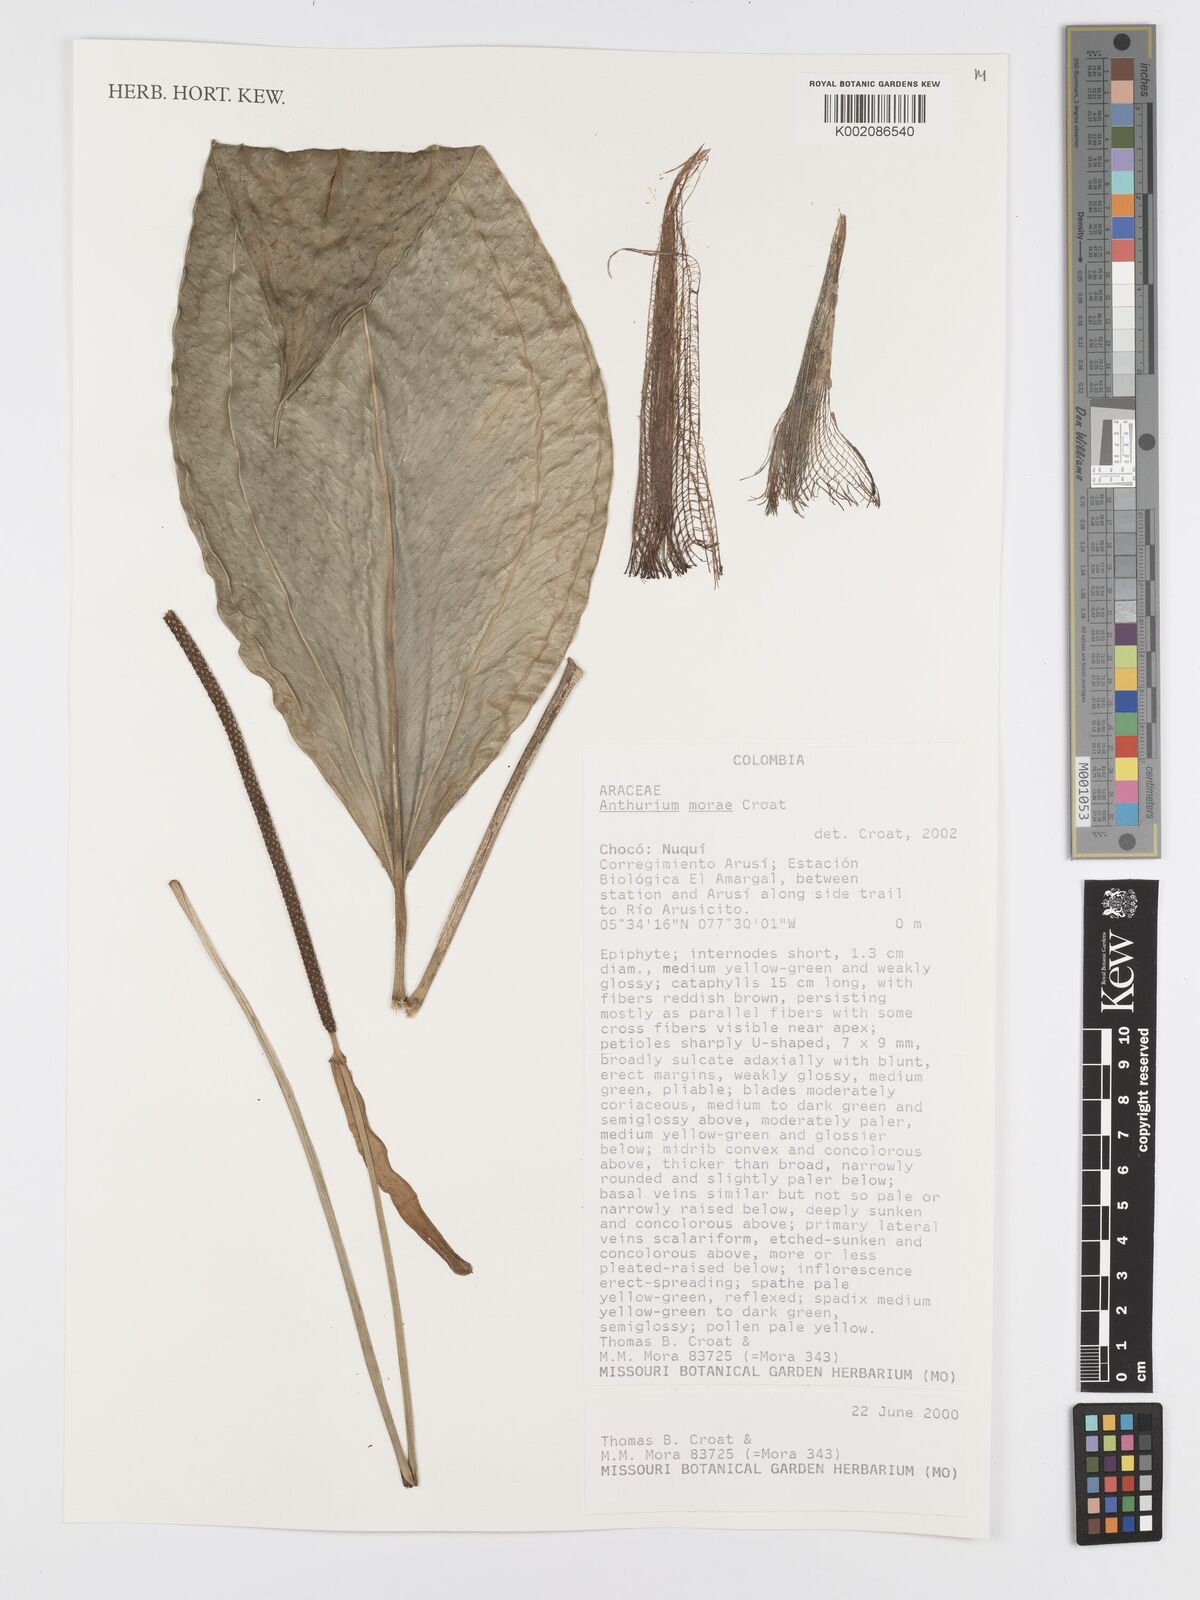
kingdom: Plantae
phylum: Tracheophyta
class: Liliopsida
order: Alismatales
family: Araceae
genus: Anthurium
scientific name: Anthurium morae
